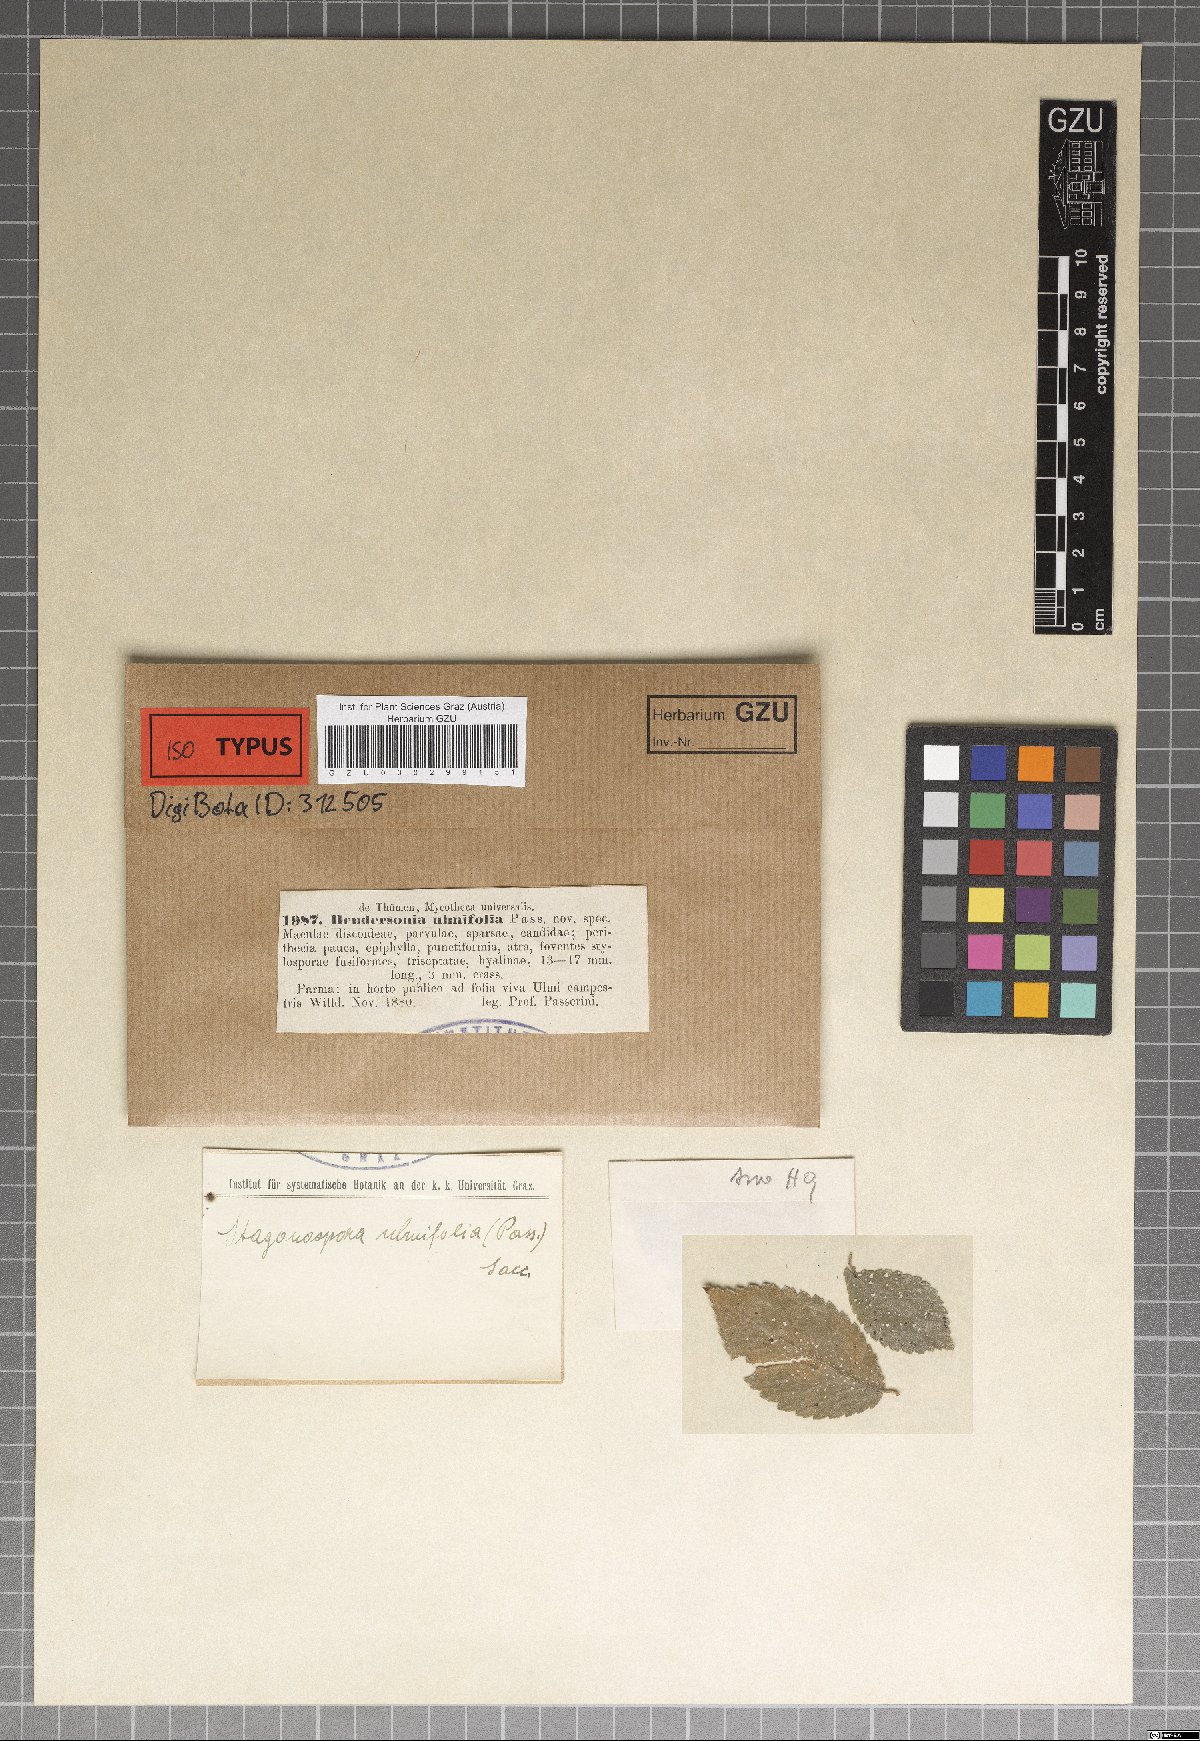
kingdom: Fungi
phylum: Ascomycota
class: Dothideomycetes
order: Pleosporales
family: Phaeosphaeriaceae
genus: Hendersonia
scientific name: Hendersonia ulmicola
